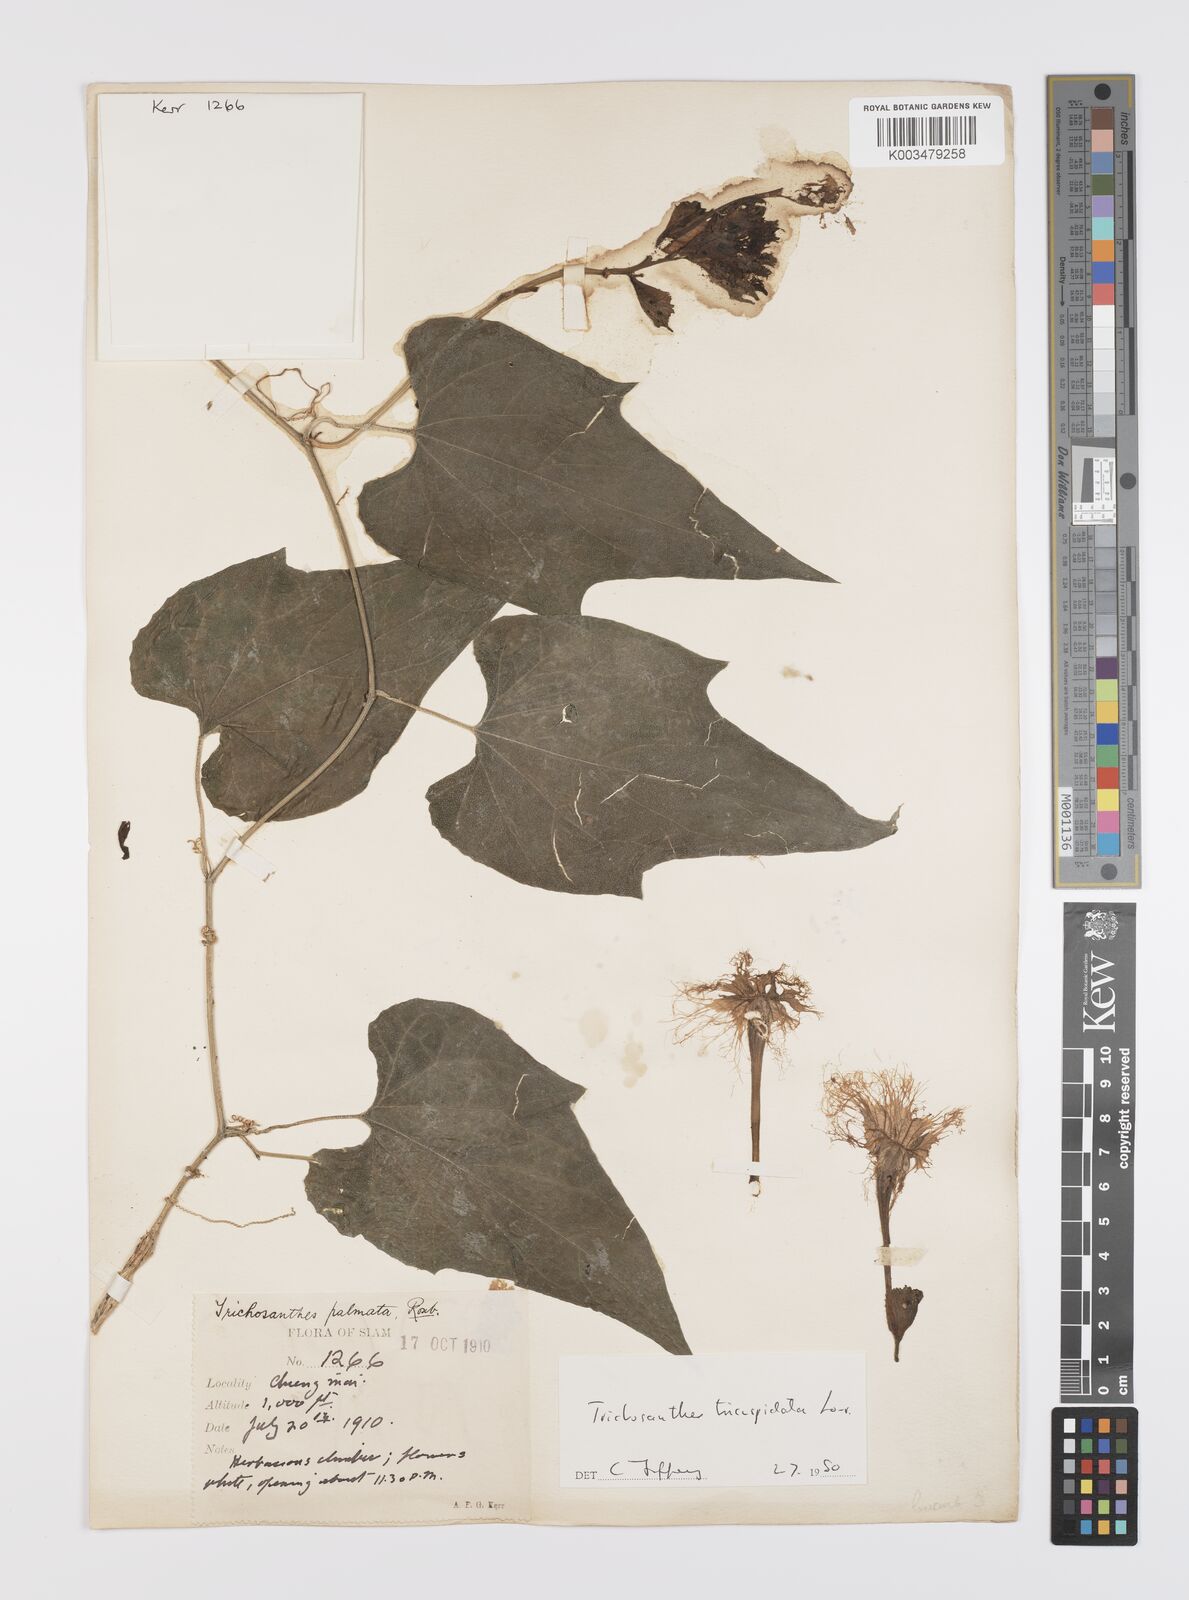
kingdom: Plantae
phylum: Tracheophyta
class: Magnoliopsida
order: Cucurbitales
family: Cucurbitaceae
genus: Trichosanthes
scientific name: Trichosanthes tricuspidata
